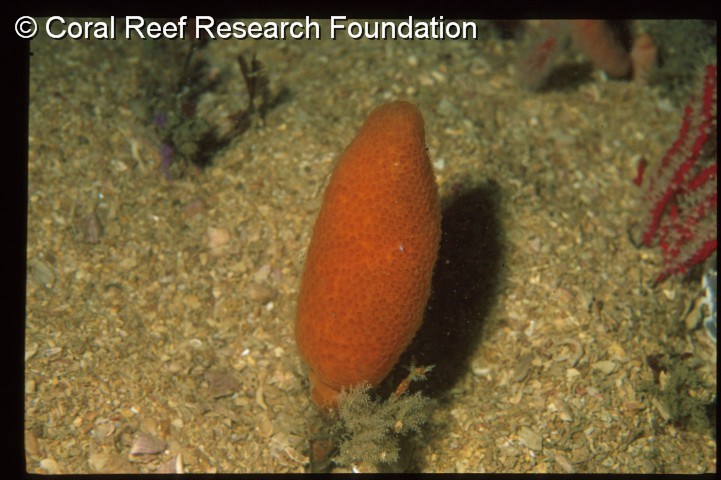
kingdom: Animalia
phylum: Chordata
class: Ascidiacea
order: Aplousobranchia
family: Pseudodistomidae
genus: Pseudodistoma
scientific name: Pseudodistoma
